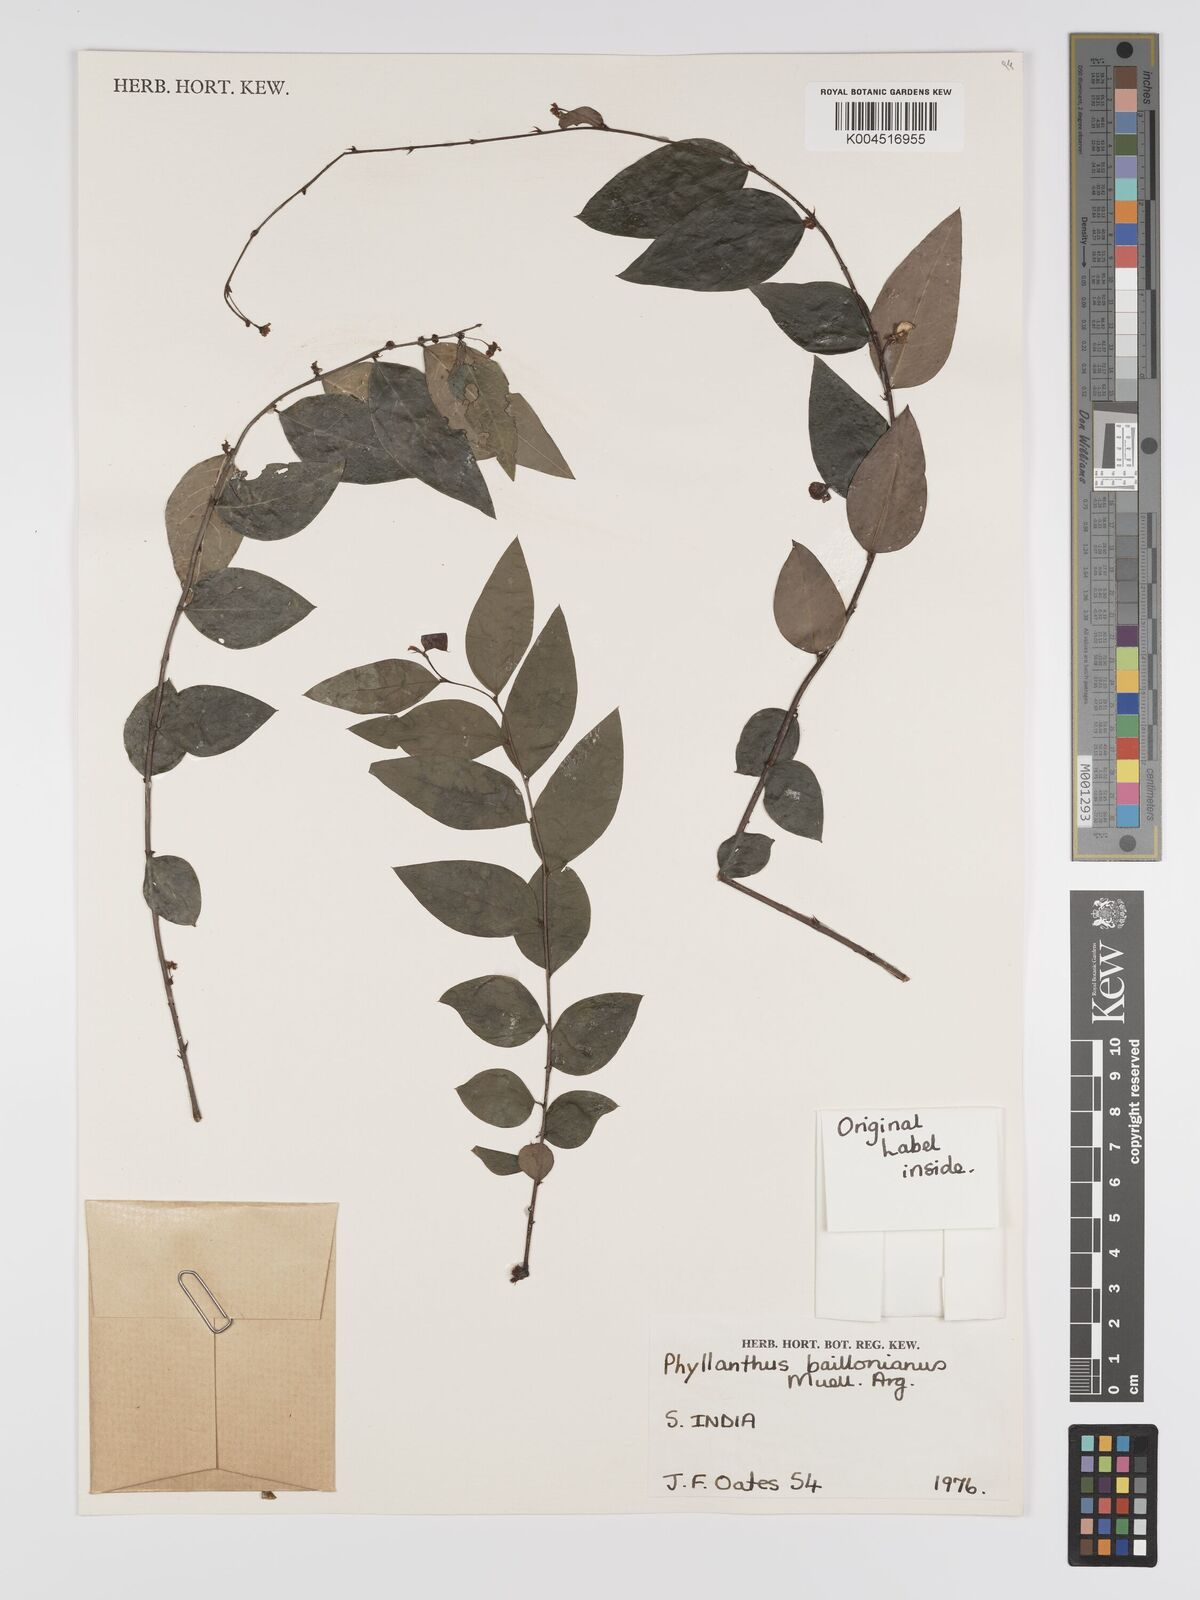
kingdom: Plantae
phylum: Tracheophyta
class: Magnoliopsida
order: Malpighiales
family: Phyllanthaceae
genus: Phyllanthus
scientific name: Phyllanthus baillonianus
